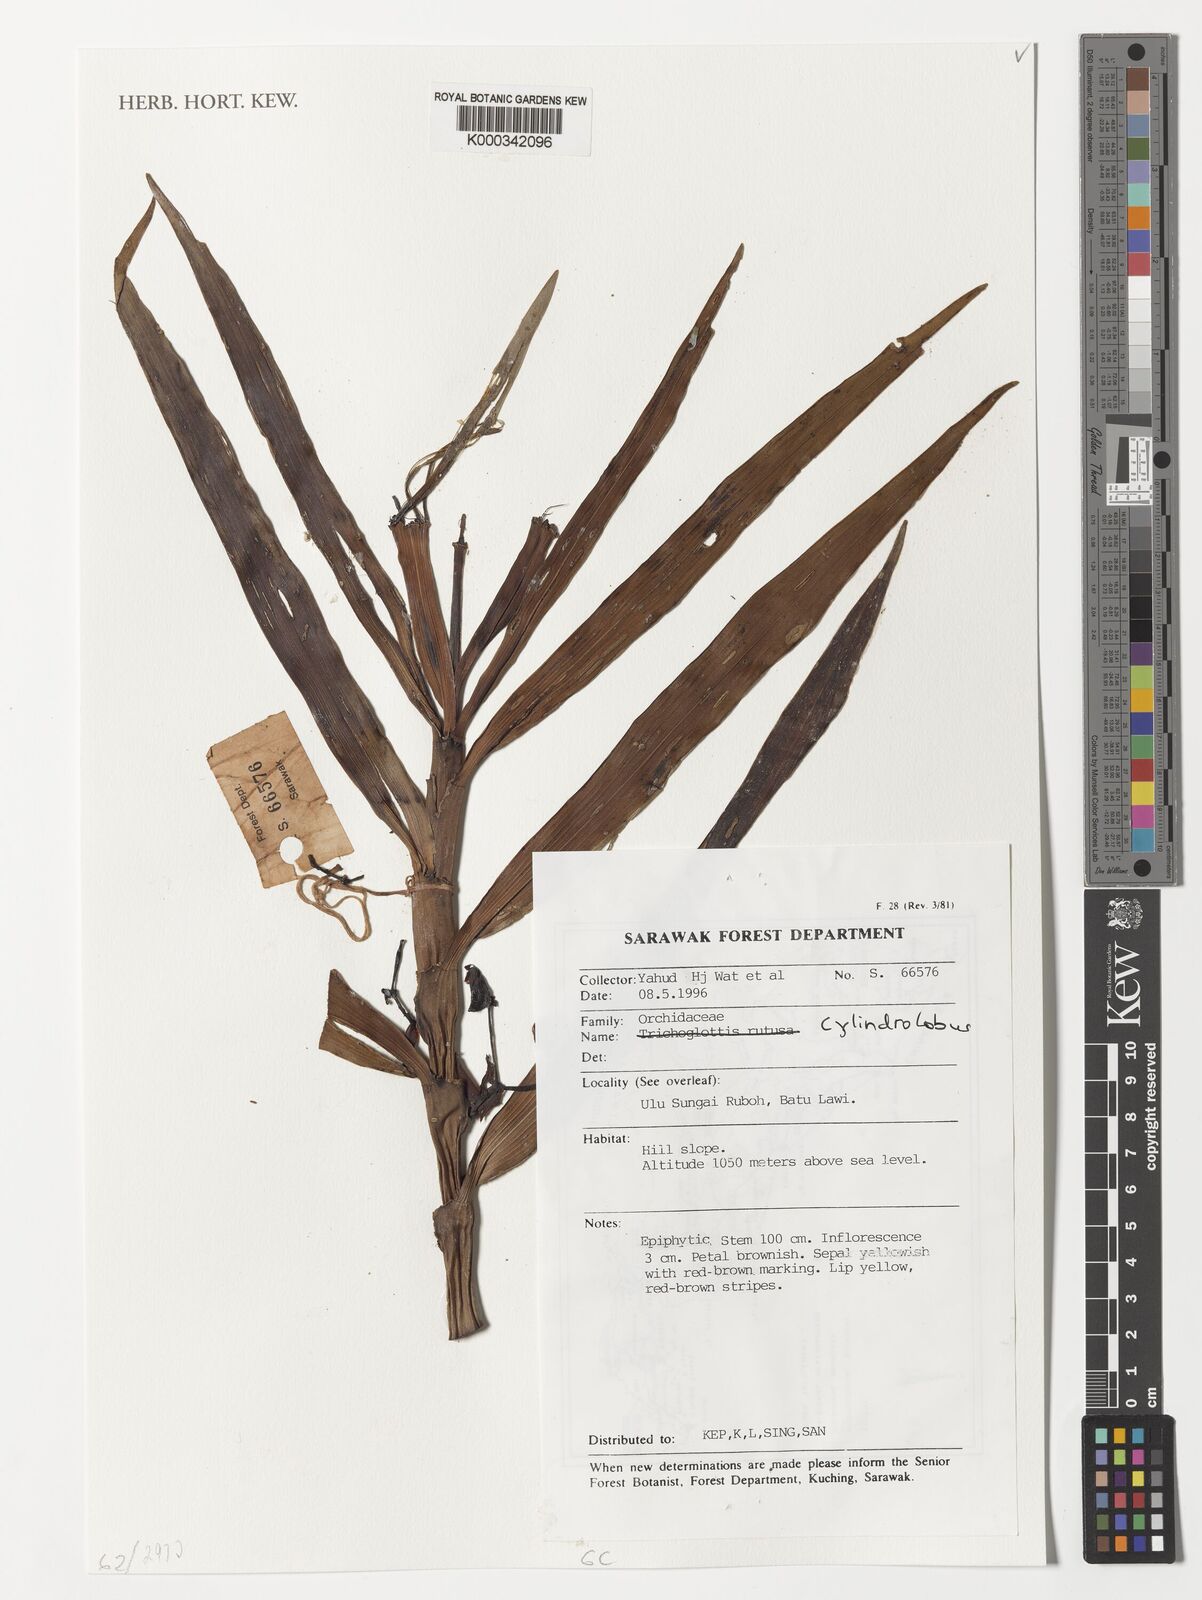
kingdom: Plantae
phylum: Tracheophyta
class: Liliopsida
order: Asparagales
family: Orchidaceae
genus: Cylindrolobus
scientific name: Cylindrolobus
